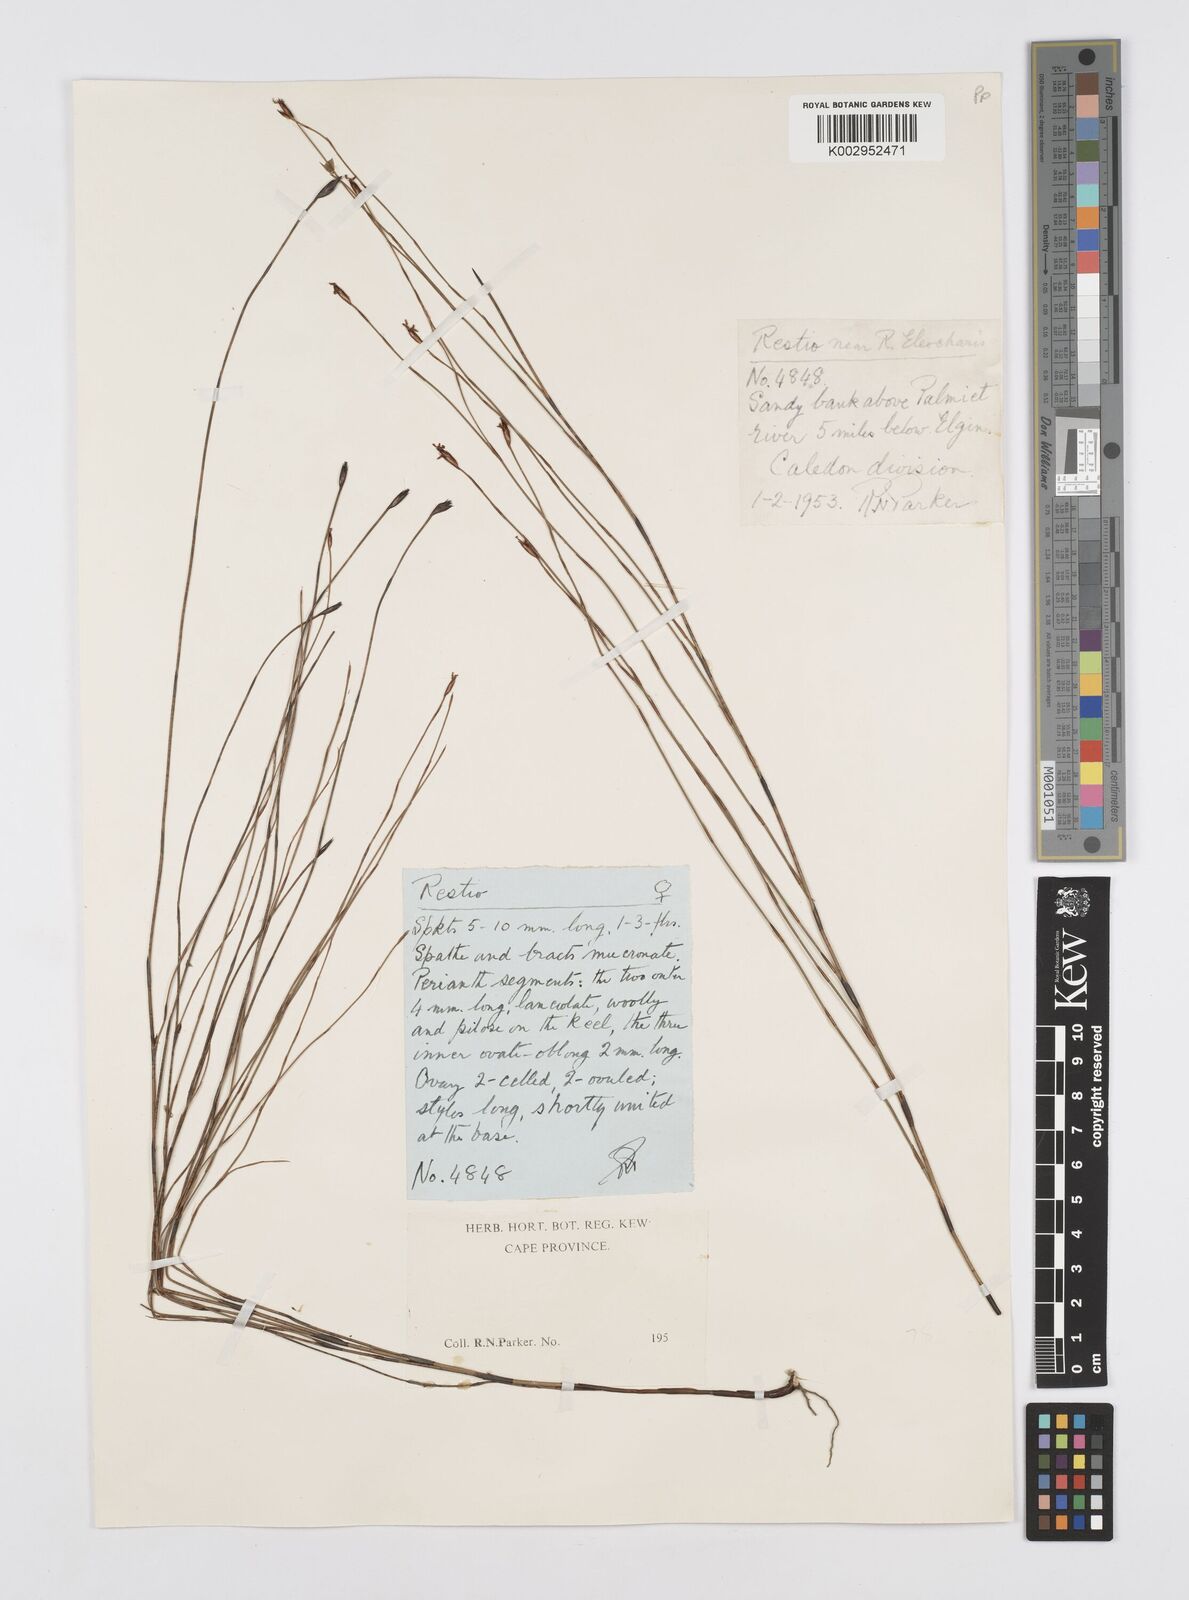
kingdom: Plantae
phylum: Tracheophyta
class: Liliopsida
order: Poales
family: Restionaceae
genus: Restio
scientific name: Restio eleocharis
